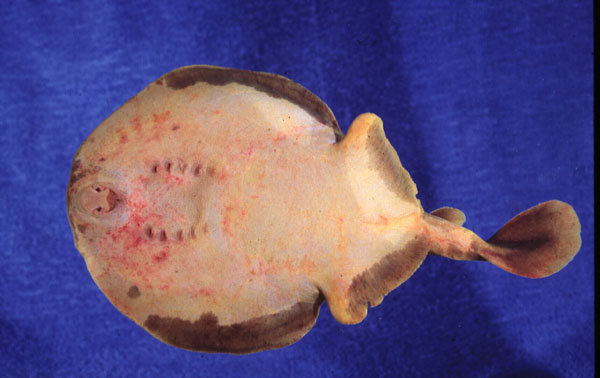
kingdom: Animalia
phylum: Chordata
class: Elasmobranchii
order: Torpediniformes
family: Narkidae
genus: Narke
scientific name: Narke capensis
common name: Onefin electric ray
